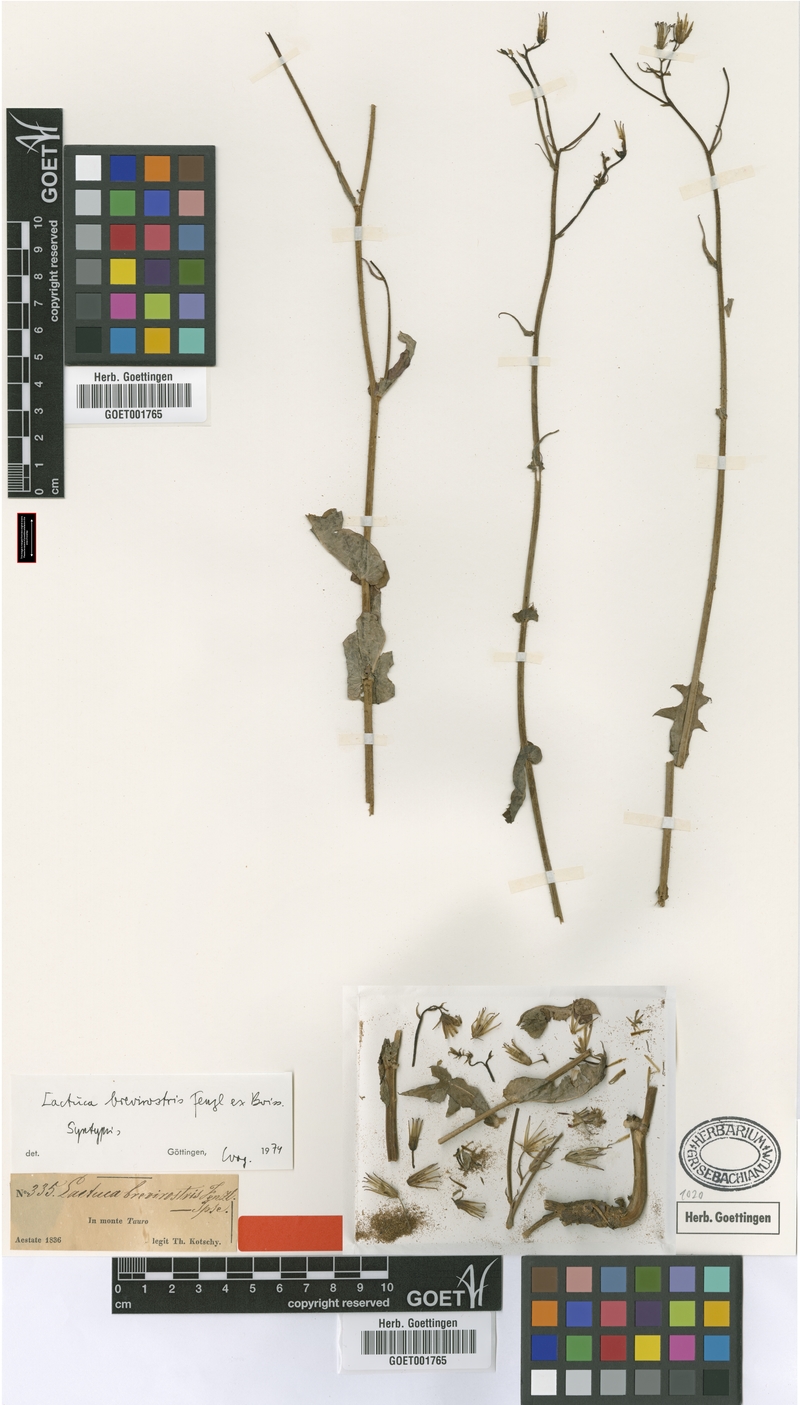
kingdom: Plantae
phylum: Tracheophyta
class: Magnoliopsida
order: Asterales
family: Asteraceae
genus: Lactuca
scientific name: Lactuca fenzlii
